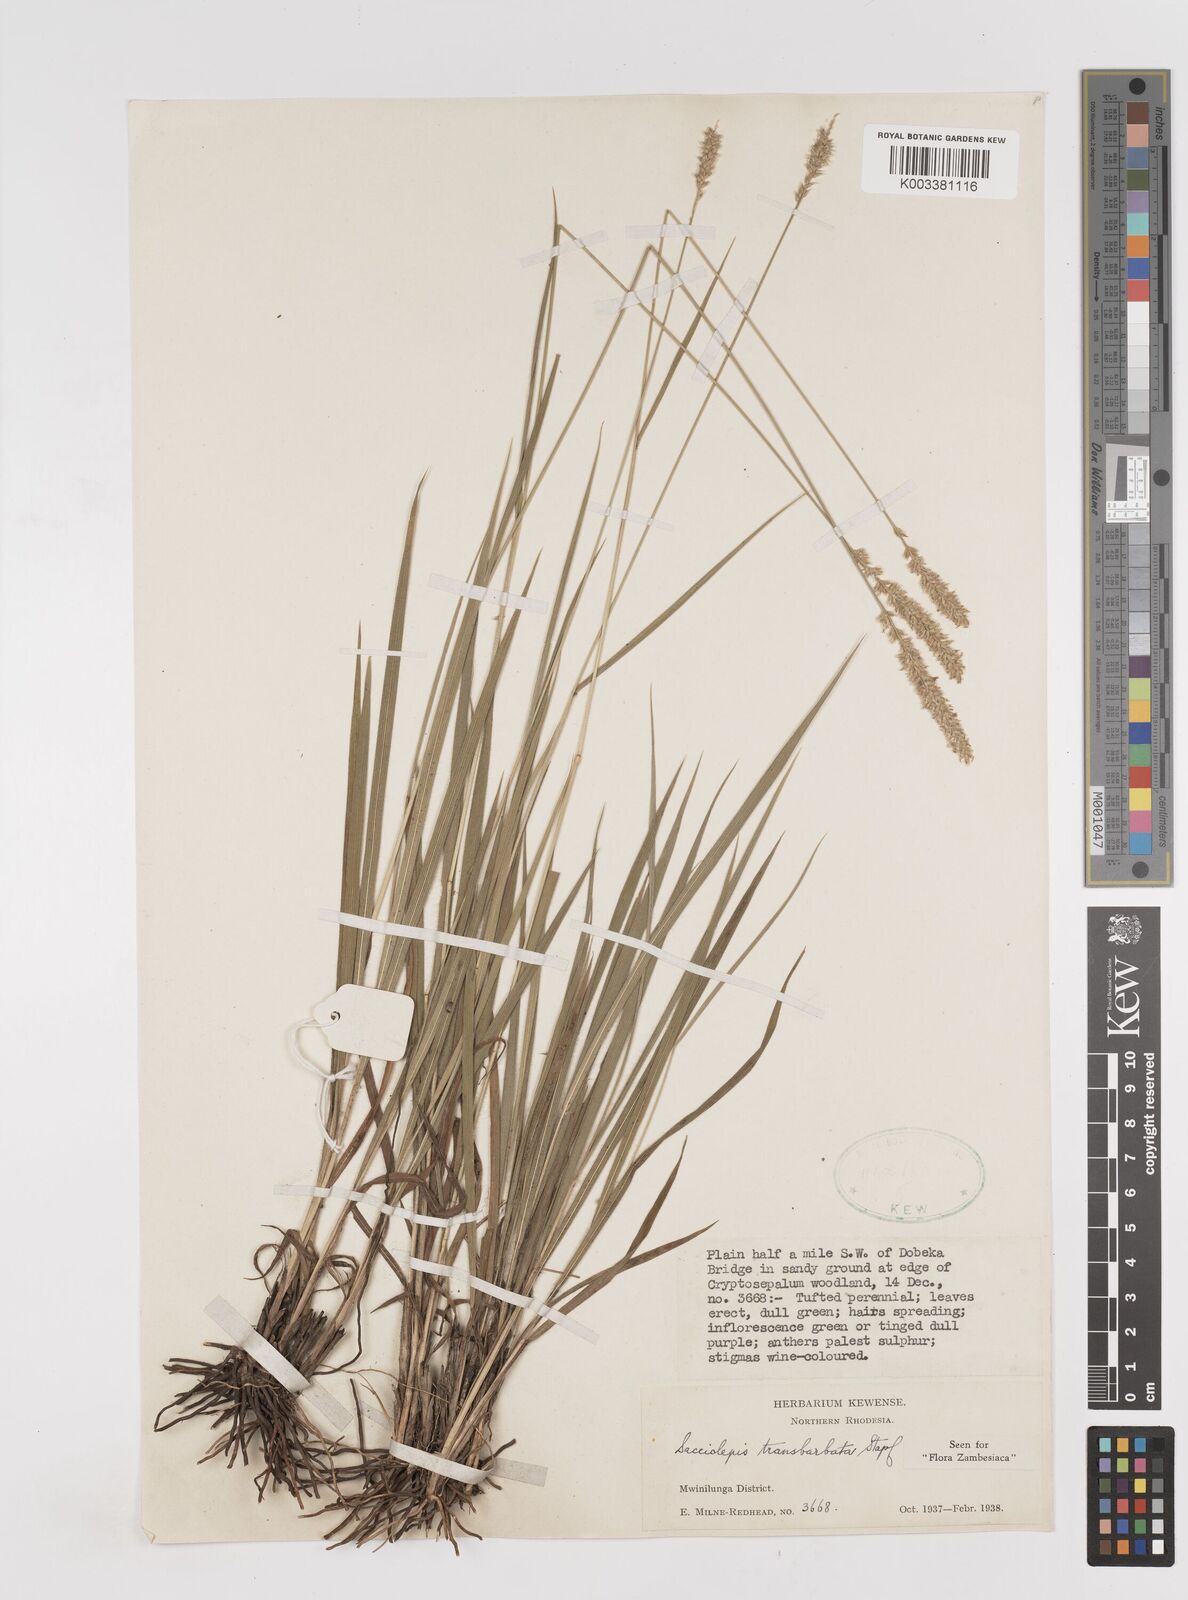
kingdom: Plantae
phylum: Tracheophyta
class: Liliopsida
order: Poales
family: Poaceae
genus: Sacciolepis
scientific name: Sacciolepis transbarbata
